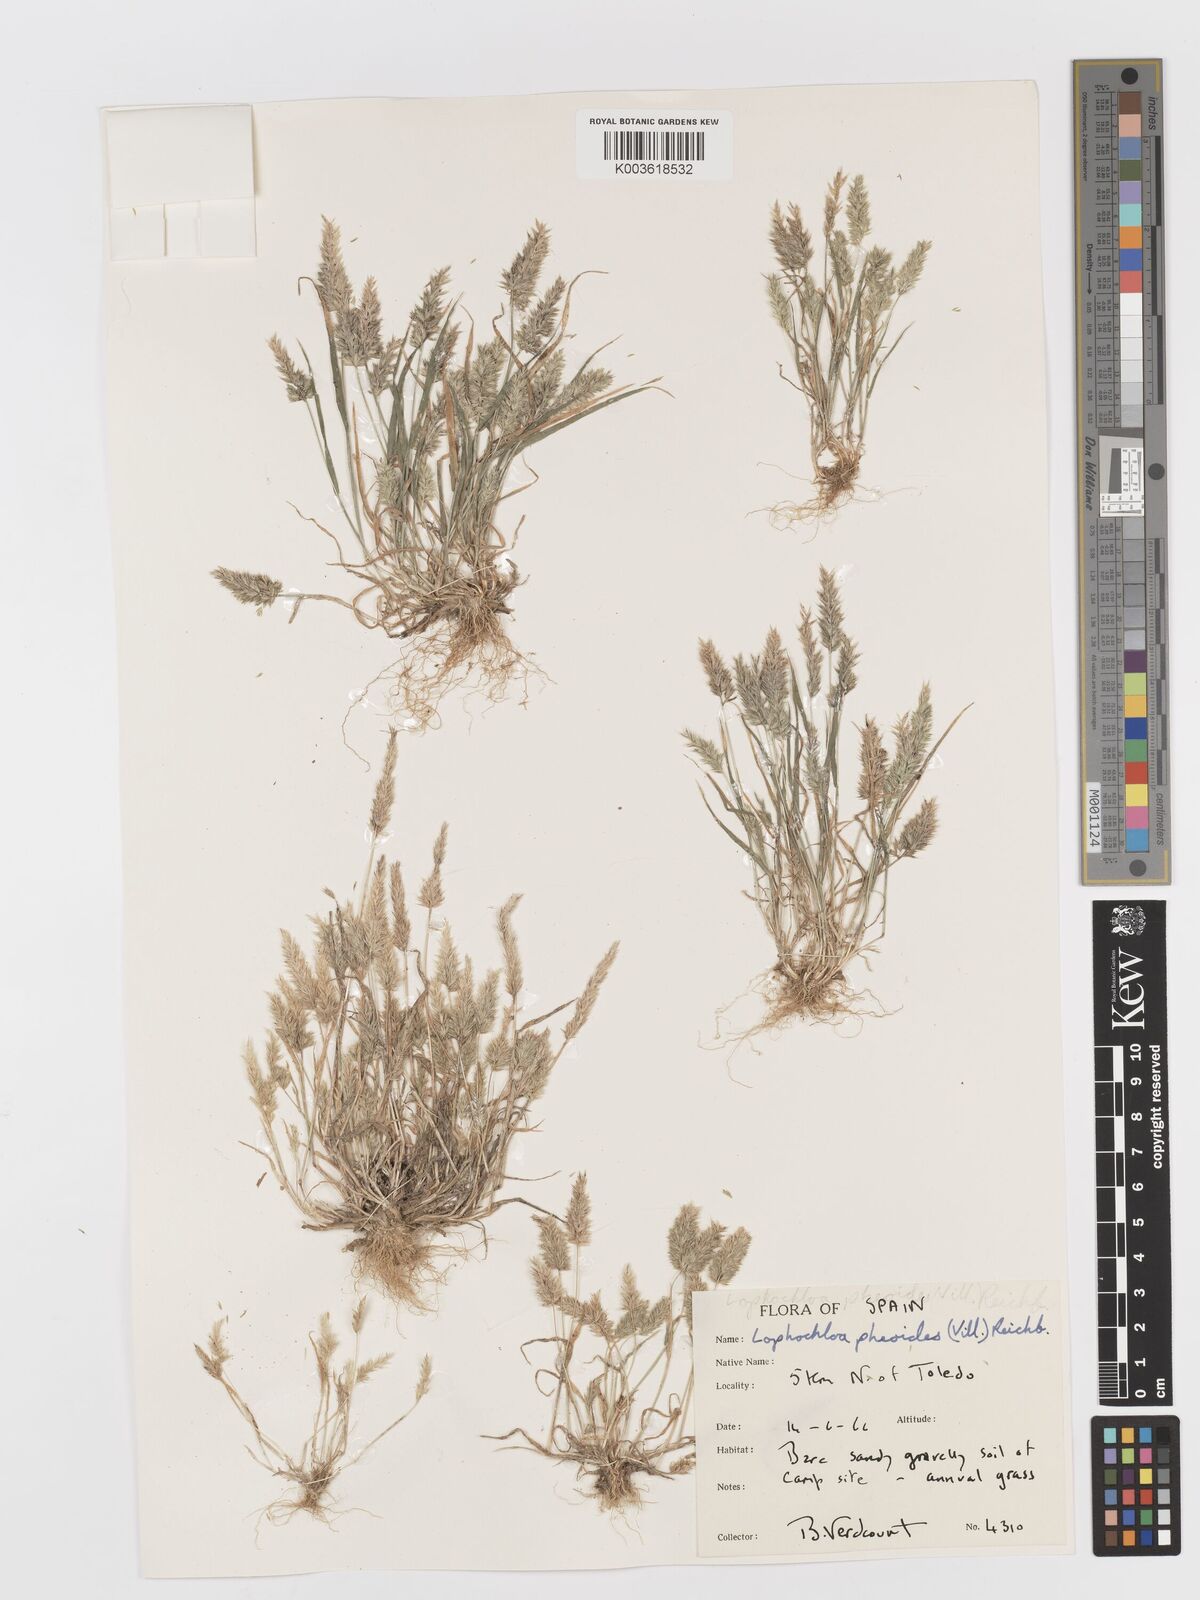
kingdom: Plantae
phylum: Tracheophyta
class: Liliopsida
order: Poales
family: Poaceae
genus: Rostraria
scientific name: Rostraria cristata
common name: Mediterranean hair-grass
